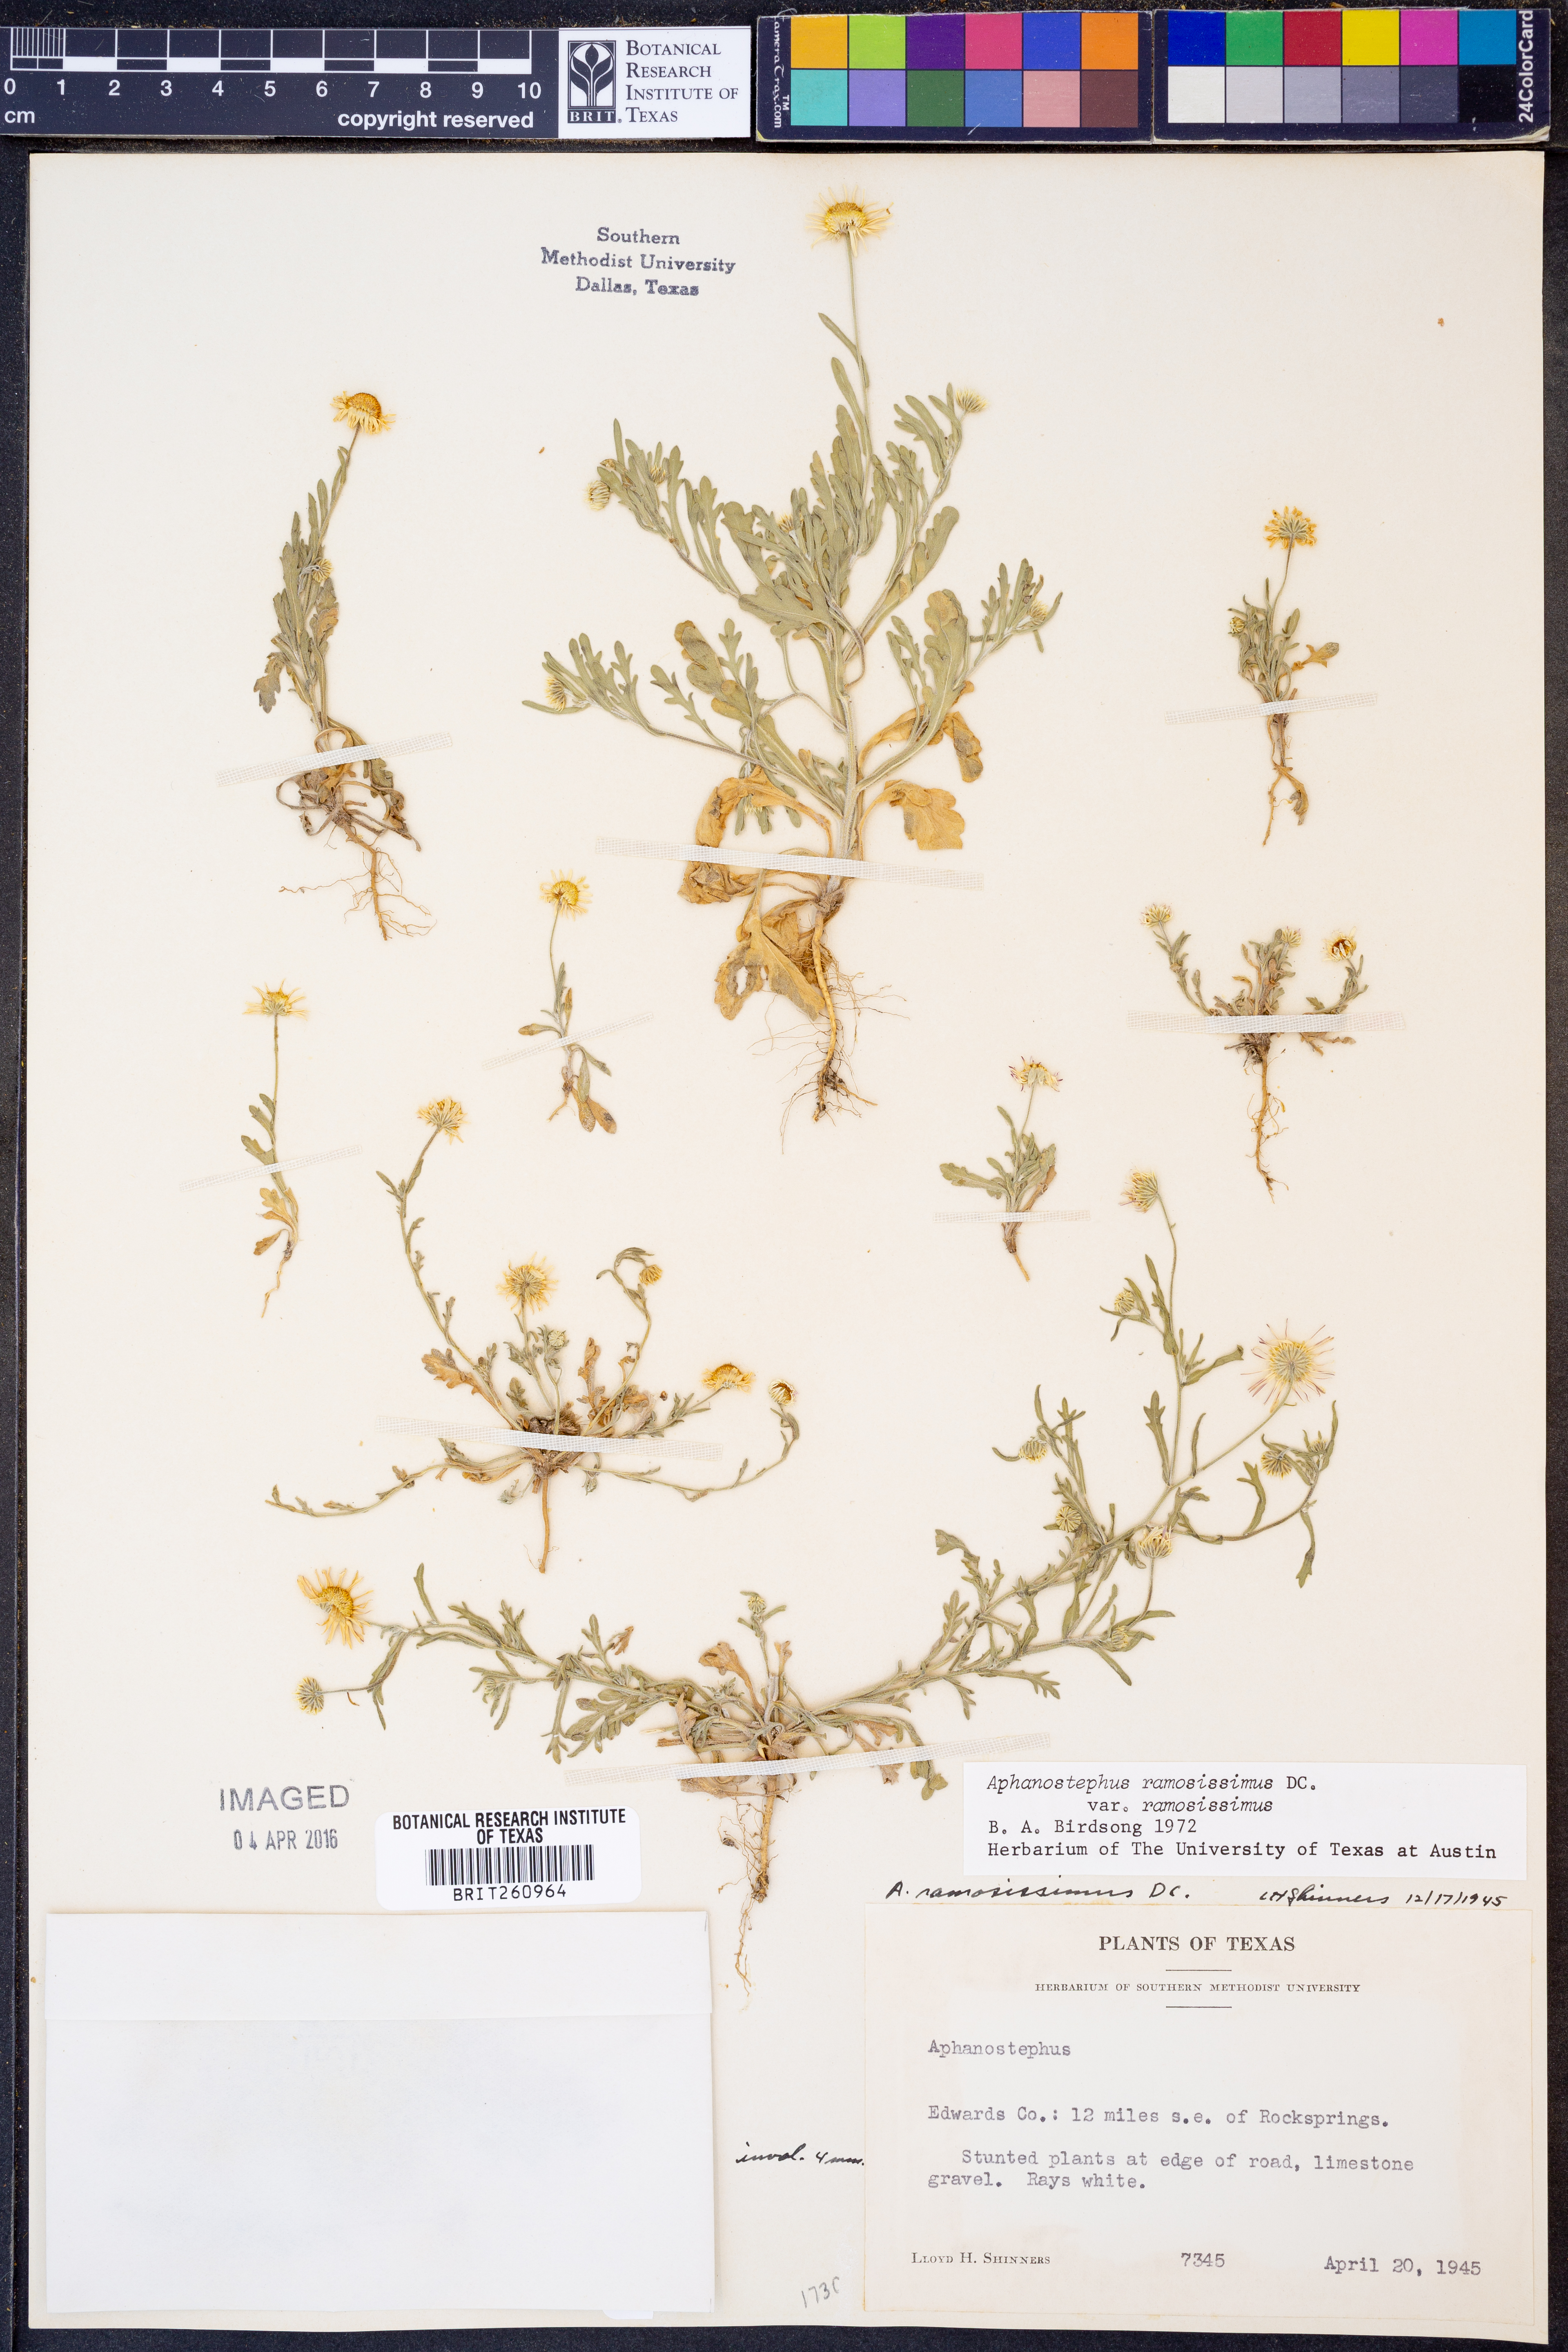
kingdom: Plantae
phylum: Tracheophyta
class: Magnoliopsida
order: Asterales
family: Asteraceae
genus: Aphanostephus
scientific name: Aphanostephus ramosissimus
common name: Plains lazy daisy
